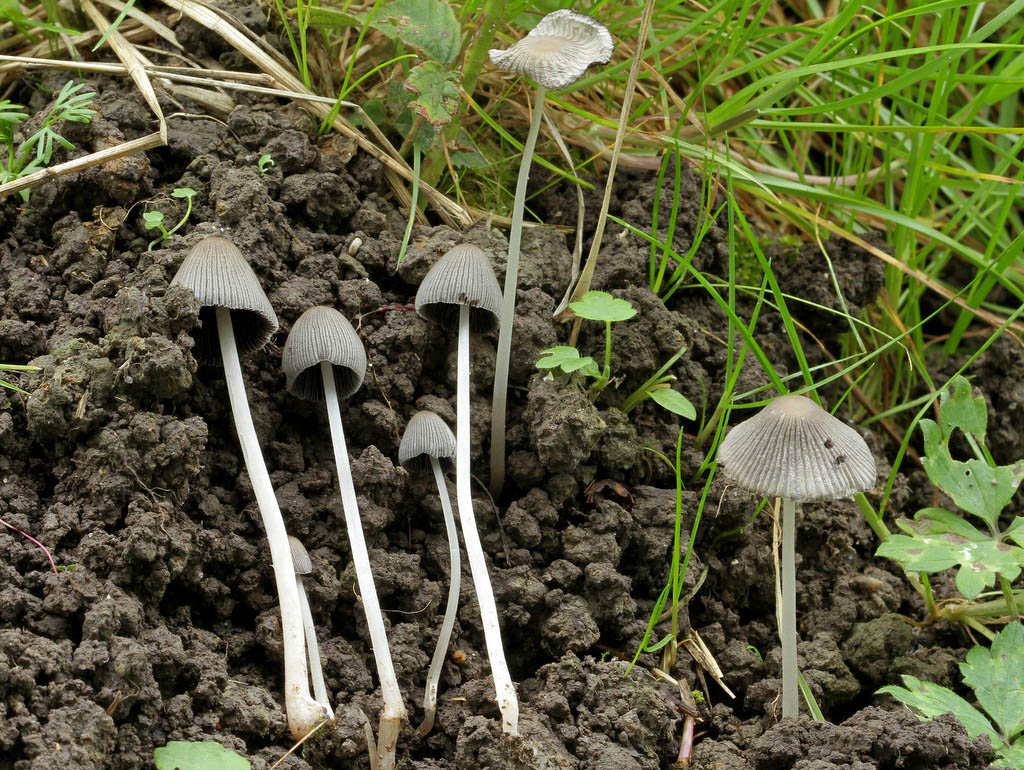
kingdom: Fungi
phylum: Basidiomycota
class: Agaricomycetes
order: Agaricales
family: Psathyrellaceae
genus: Tulosesus
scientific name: Tulosesus callinus
